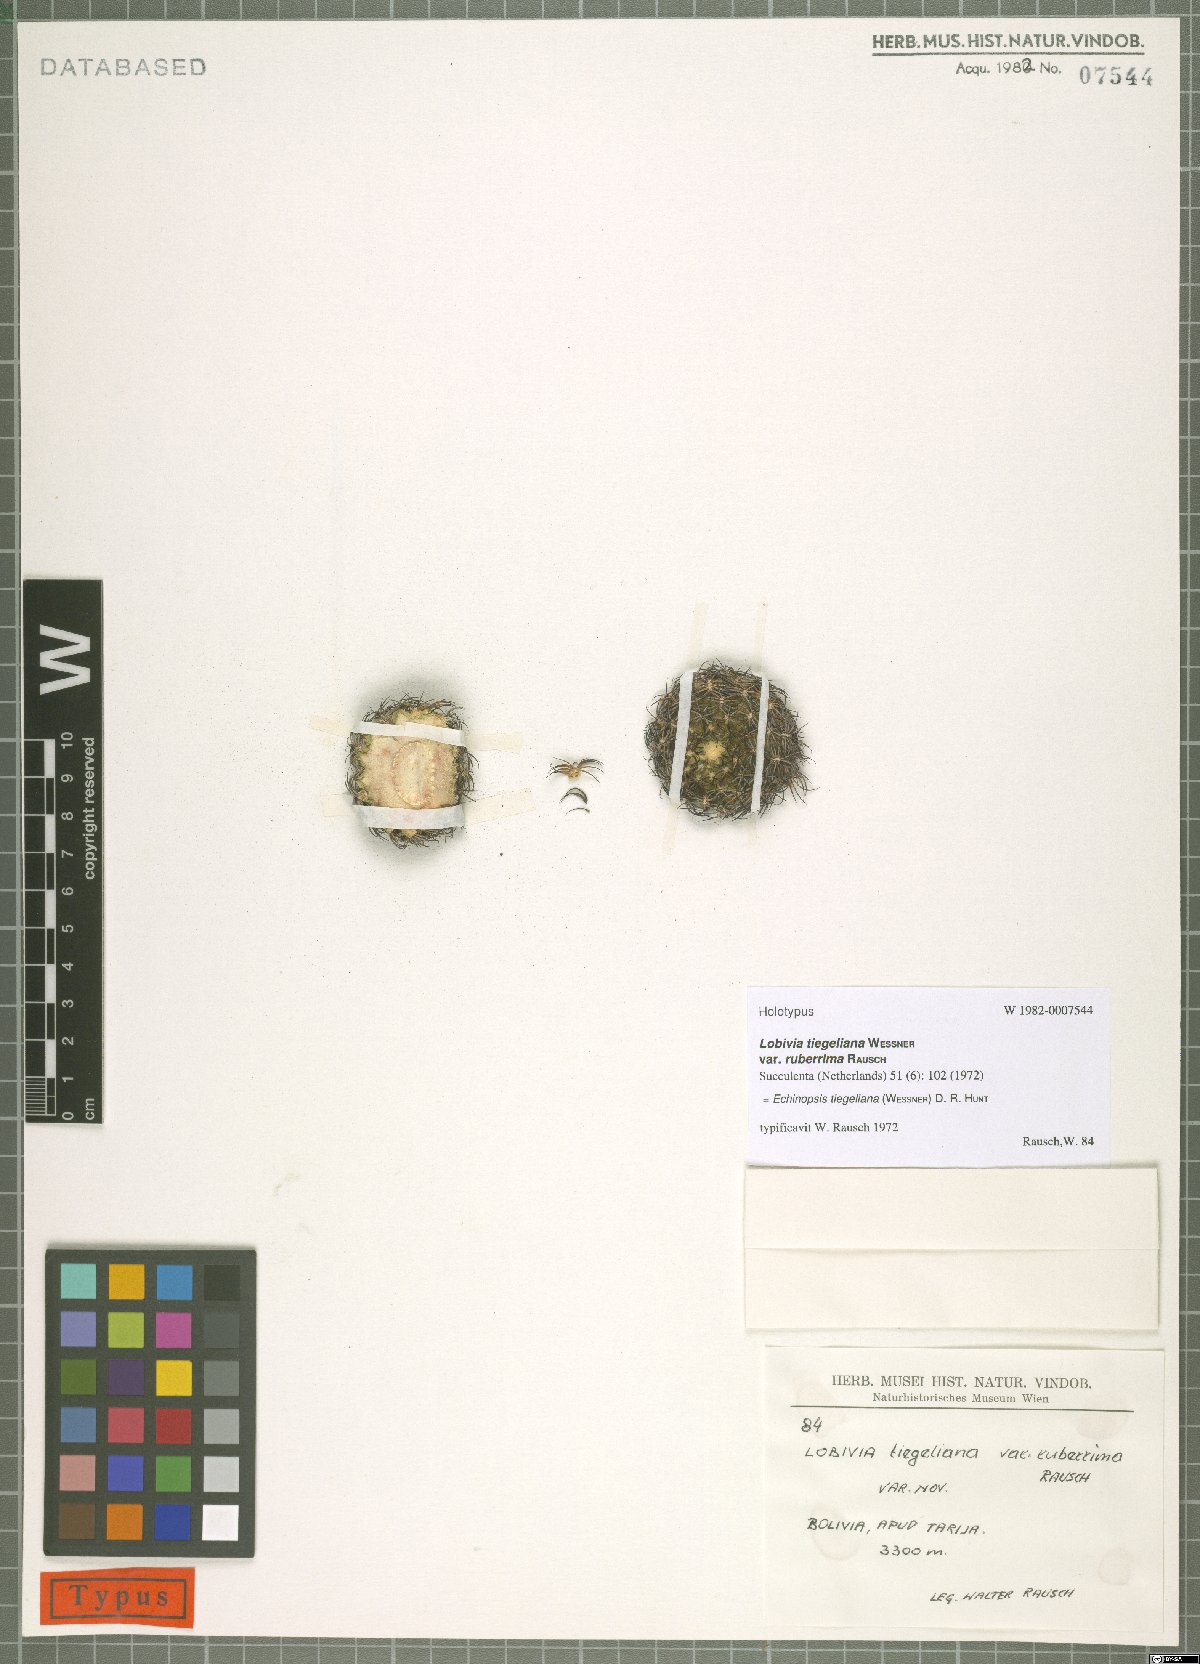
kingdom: Plantae
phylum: Tracheophyta
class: Magnoliopsida
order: Caryophyllales
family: Cactaceae
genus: Lobivia
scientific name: Lobivia tiegeliana
